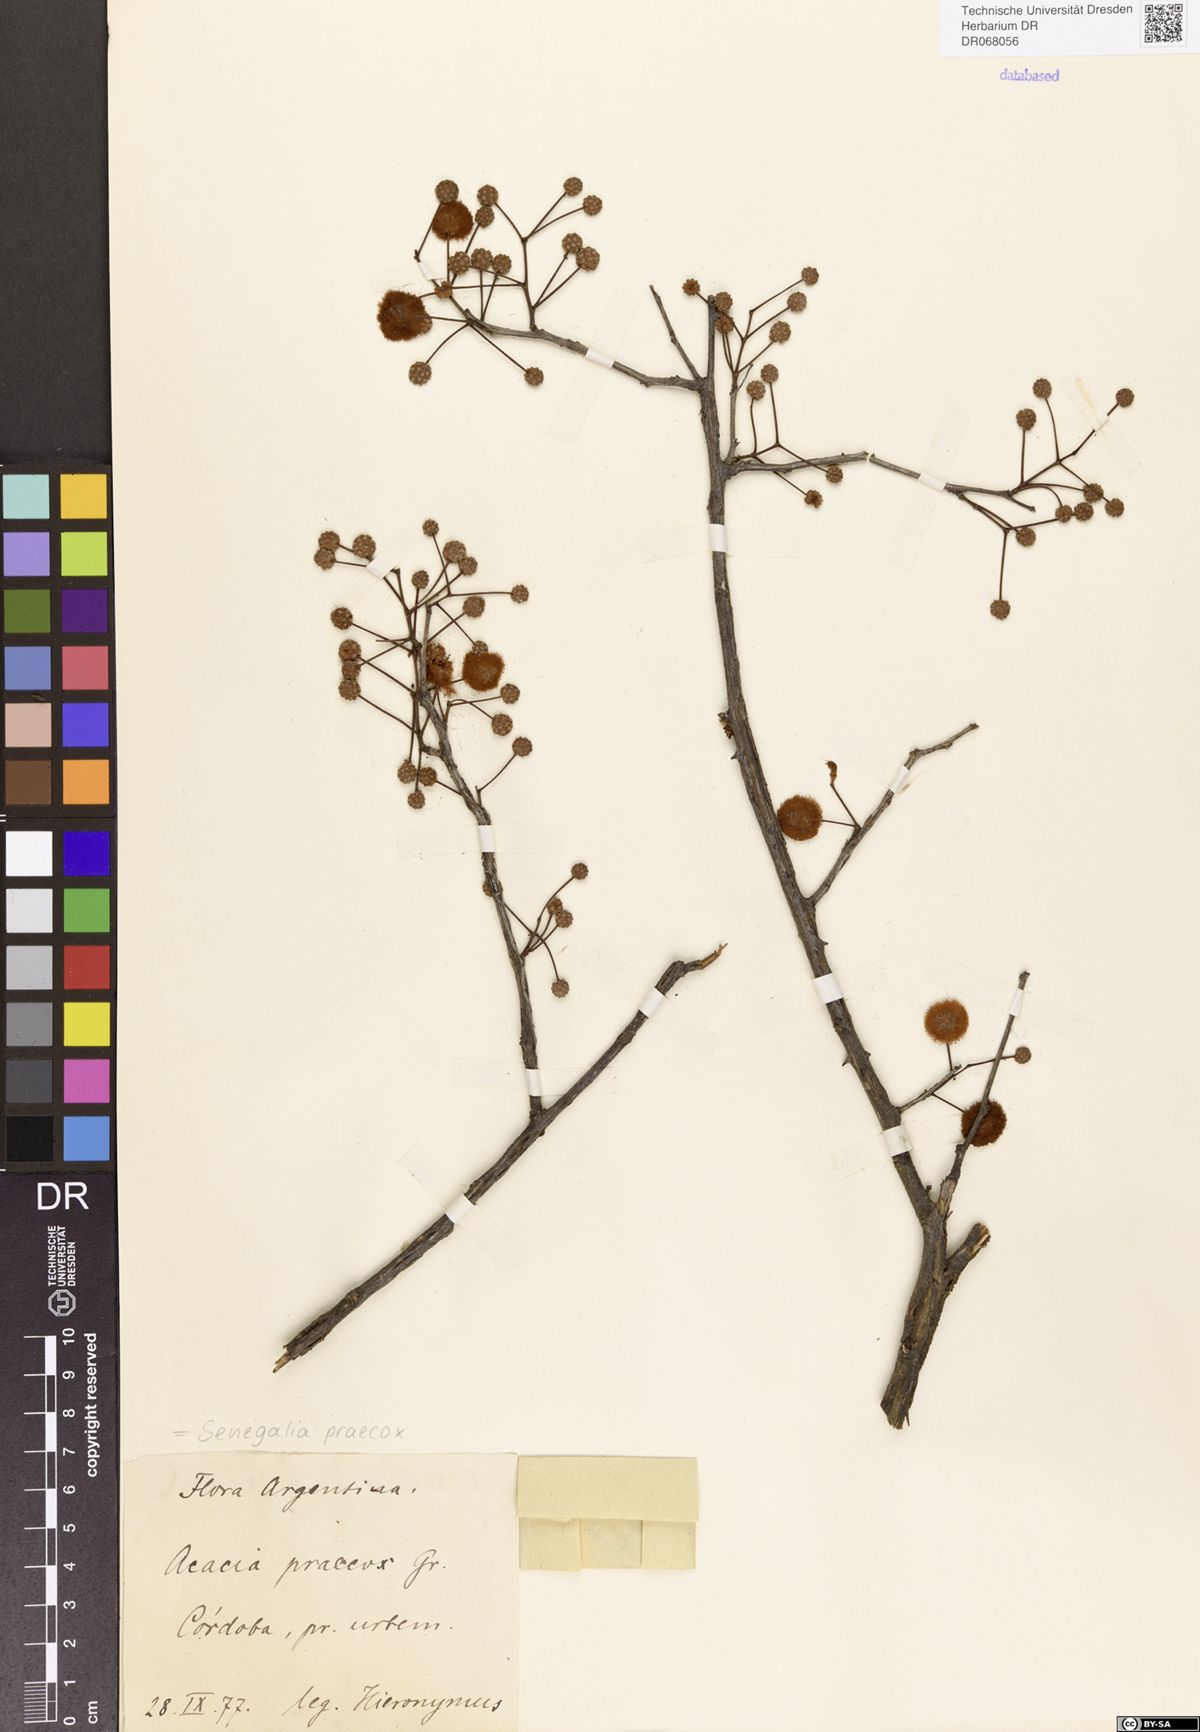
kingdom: Plantae
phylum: Tracheophyta
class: Magnoliopsida
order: Fabales
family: Fabaceae
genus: Senegalia
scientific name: Senegalia praecox
